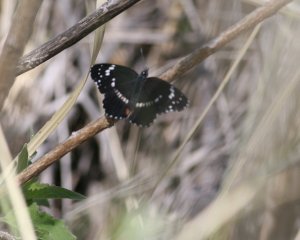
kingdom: Animalia
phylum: Arthropoda
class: Insecta
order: Lepidoptera
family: Nymphalidae
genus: Chlosyne
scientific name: Chlosyne lacinia
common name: Bordered Patch
